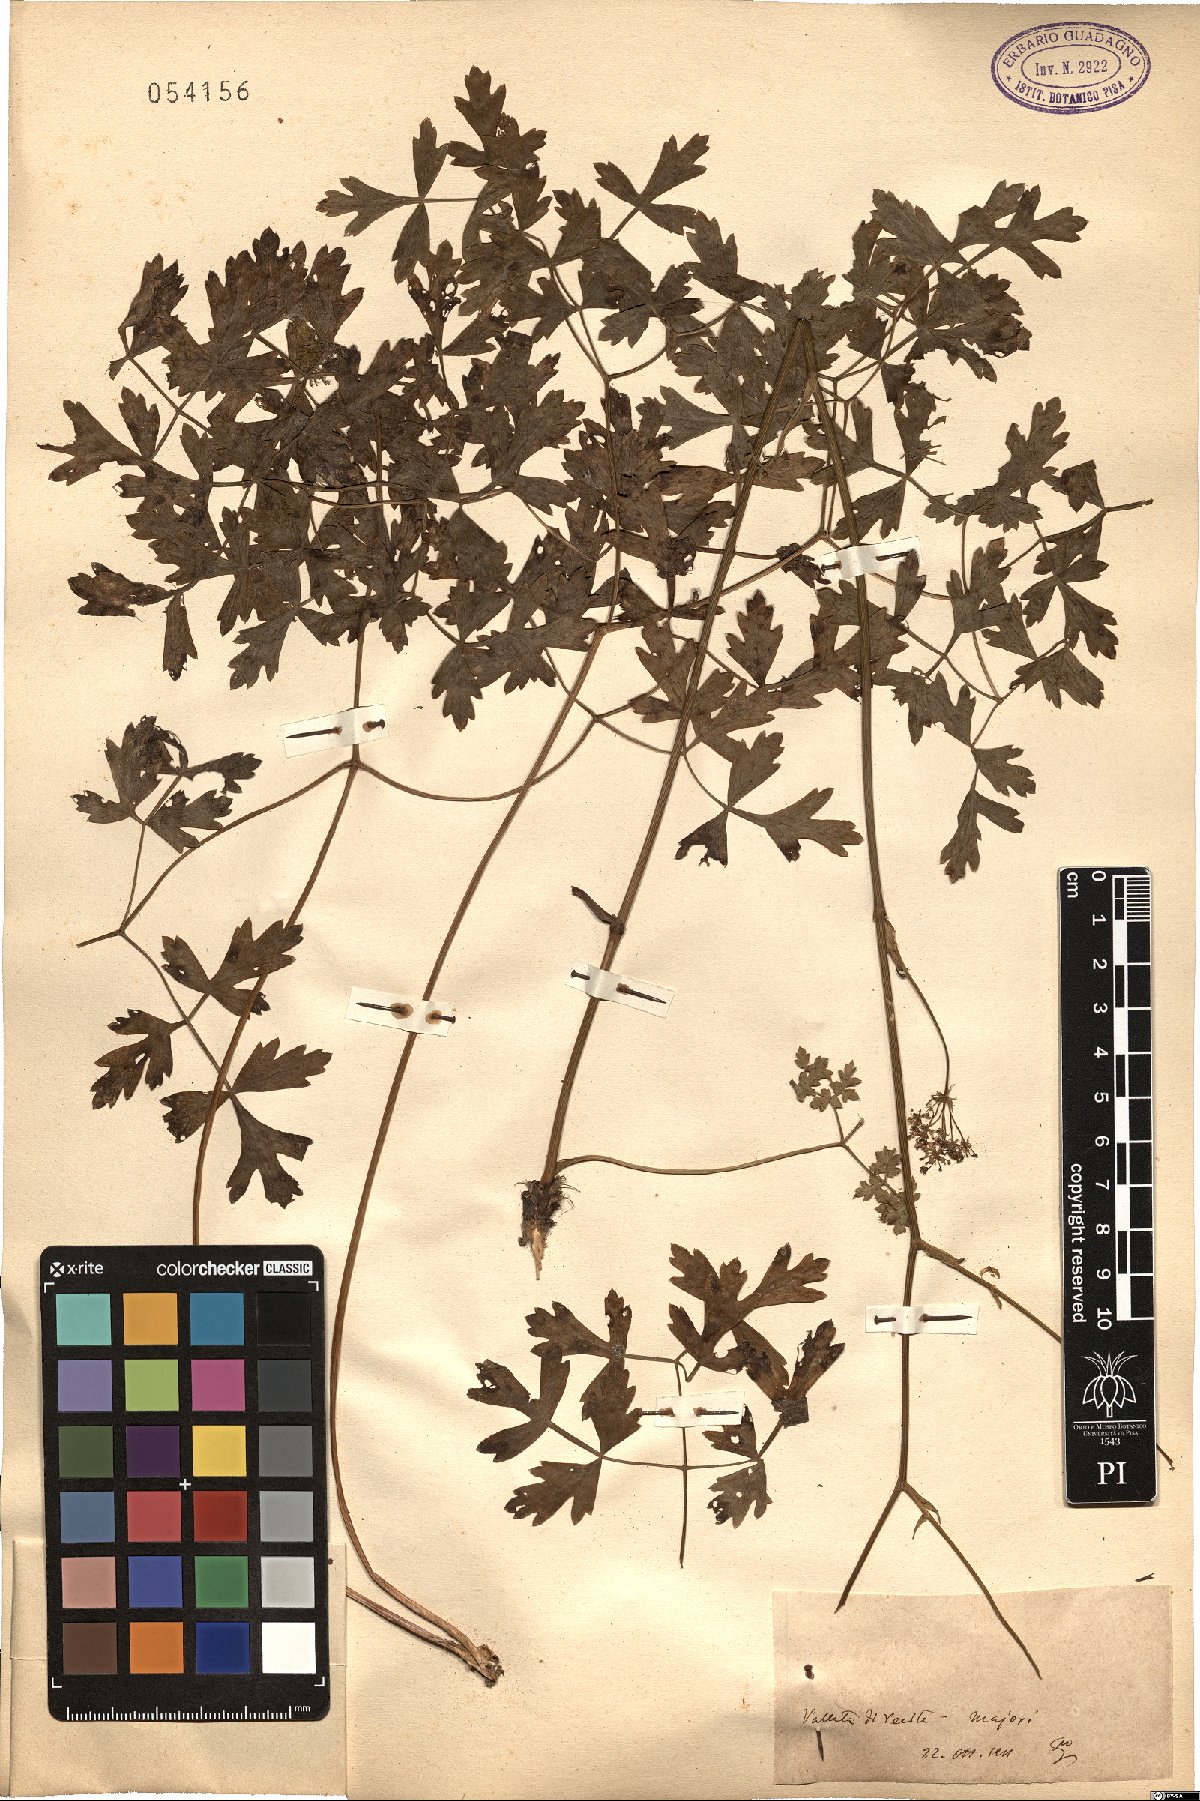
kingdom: Plantae
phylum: Tracheophyta
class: Magnoliopsida
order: Apiales
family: Apiaceae
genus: Peucedanum
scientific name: Peucedanum
